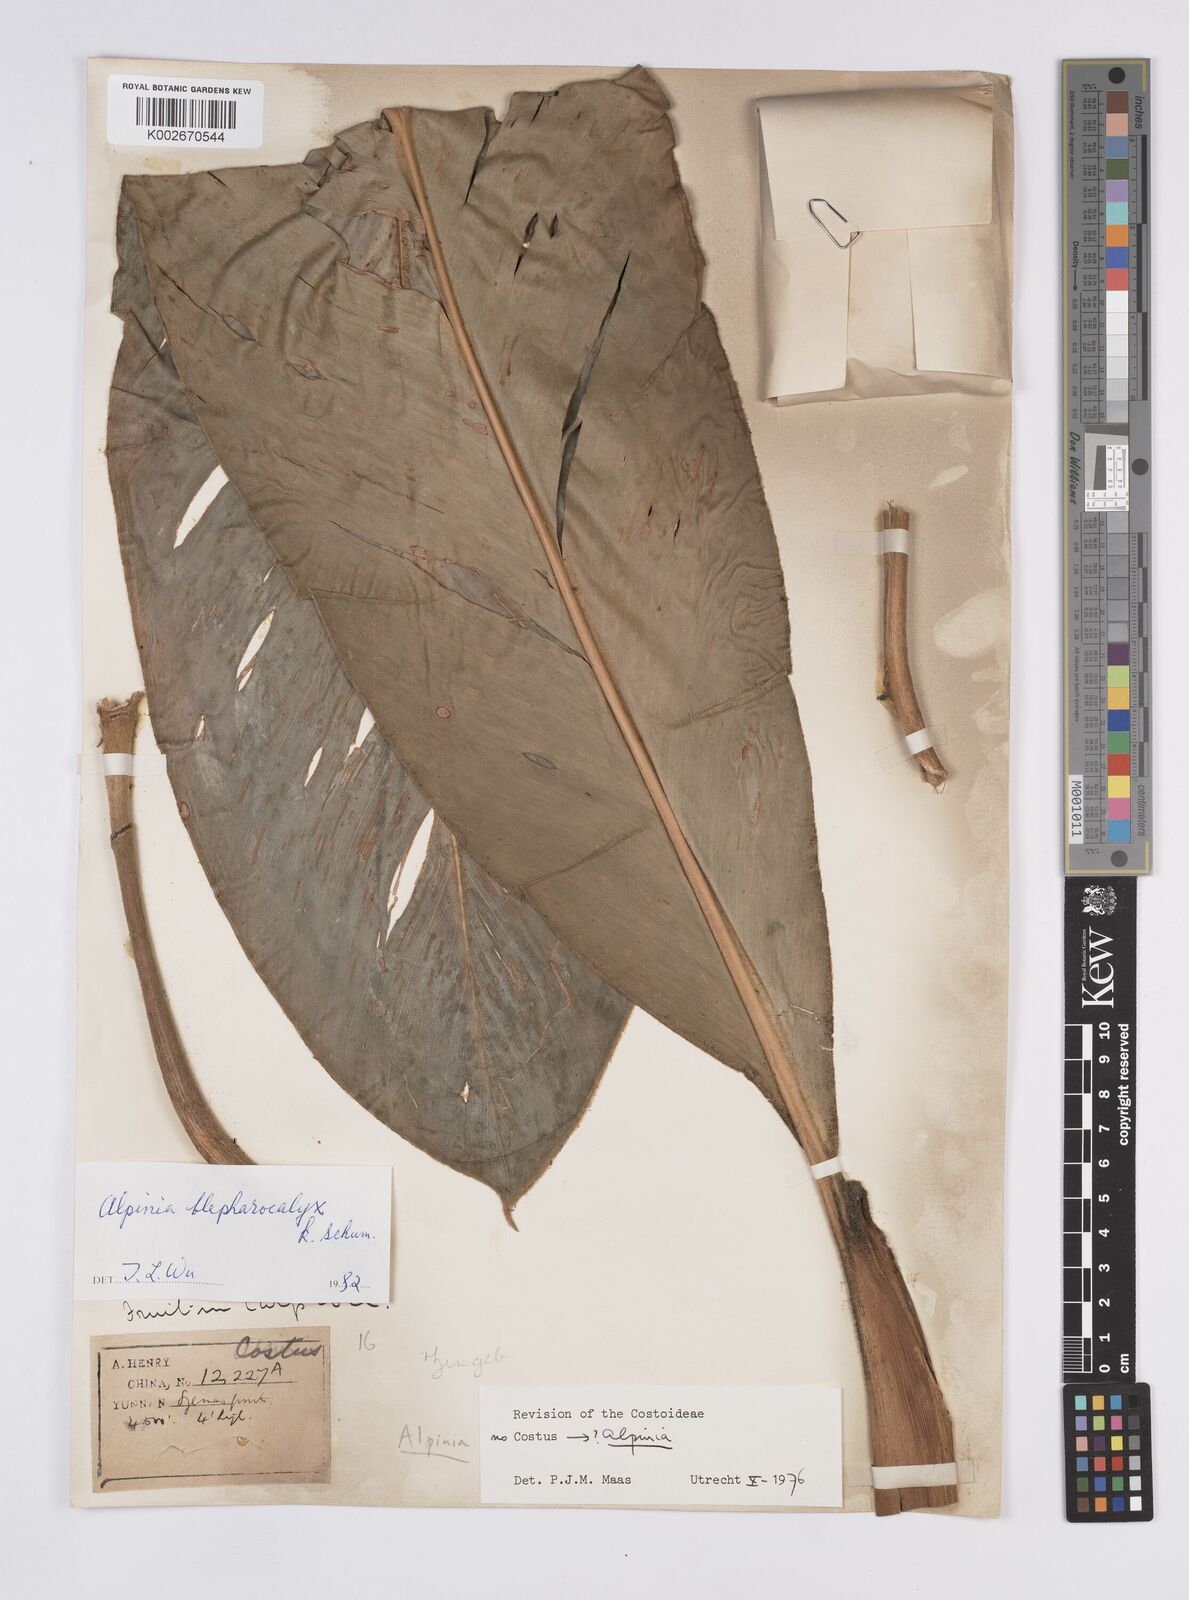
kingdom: Plantae
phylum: Tracheophyta
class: Liliopsida
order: Zingiberales
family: Zingiberaceae
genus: Alpinia
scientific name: Alpinia roxburghii
